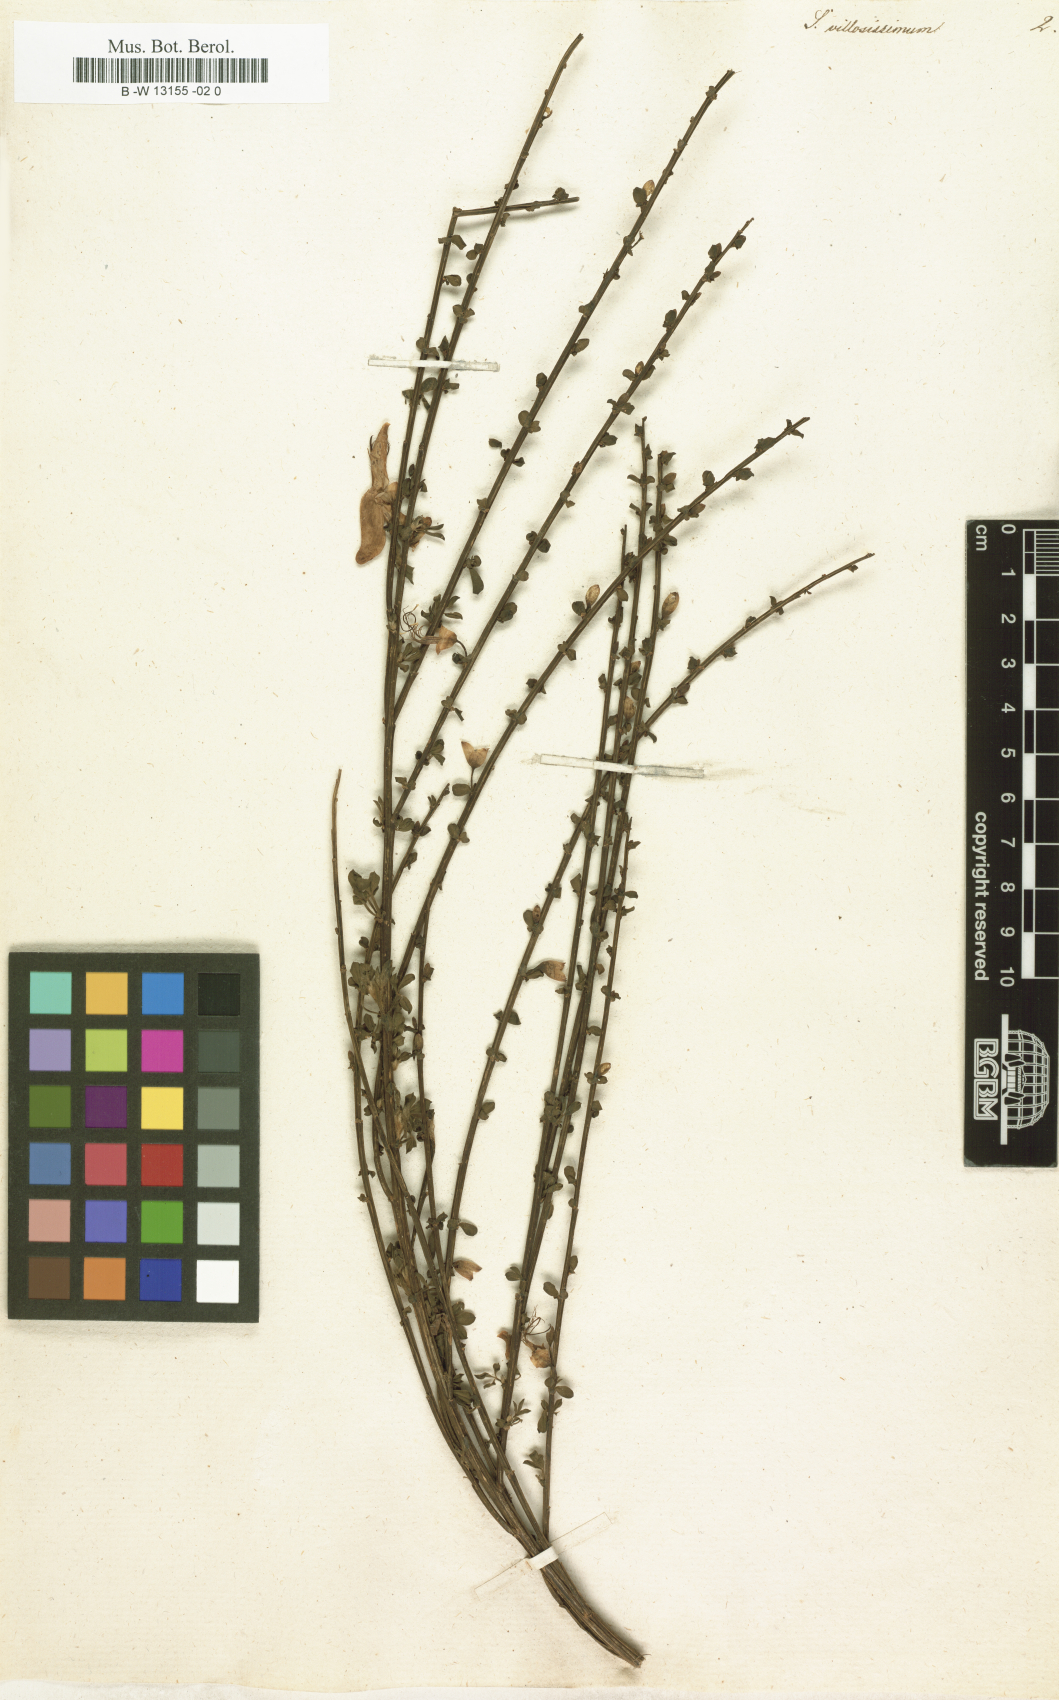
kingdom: Plantae
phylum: Tracheophyta
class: Magnoliopsida
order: Fabales
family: Fabaceae
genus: Spartium
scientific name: Spartium
